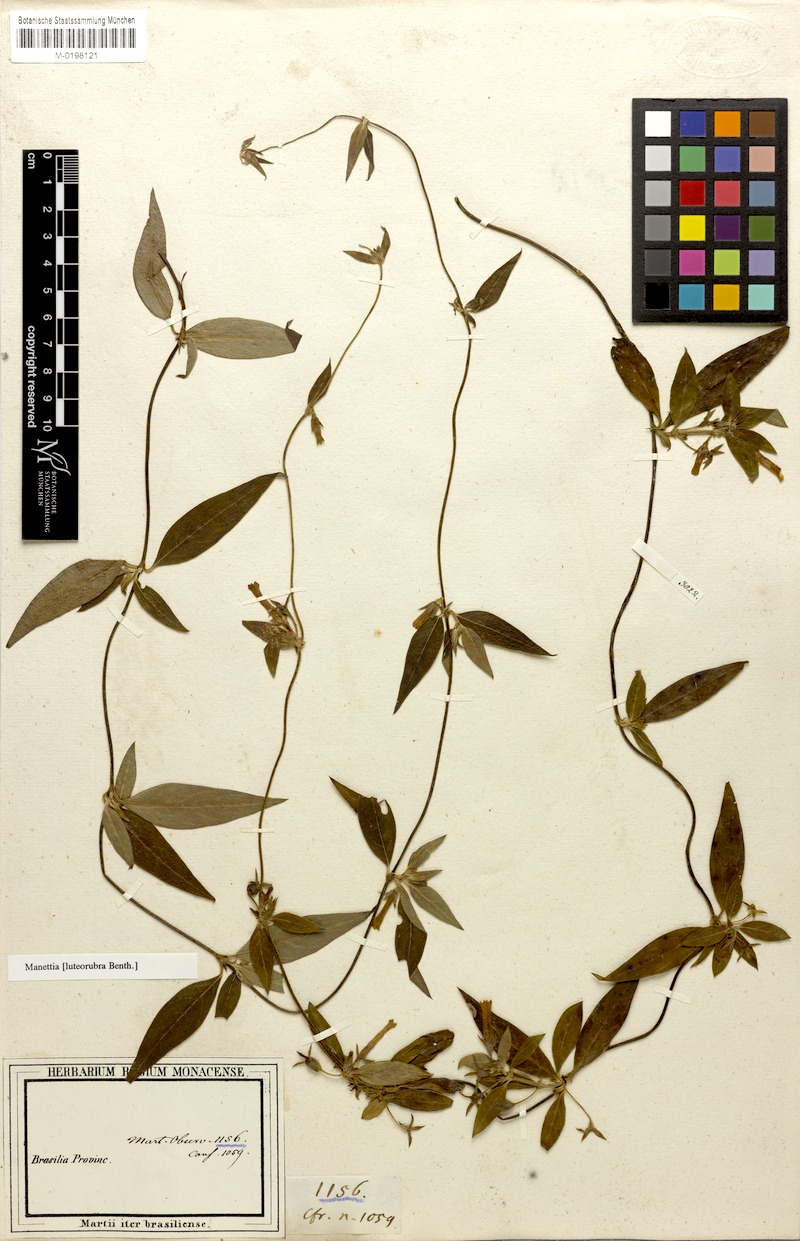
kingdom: Plantae
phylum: Tracheophyta
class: Magnoliopsida
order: Gentianales
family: Rubiaceae
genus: Manettia
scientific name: Manettia luteorubra
